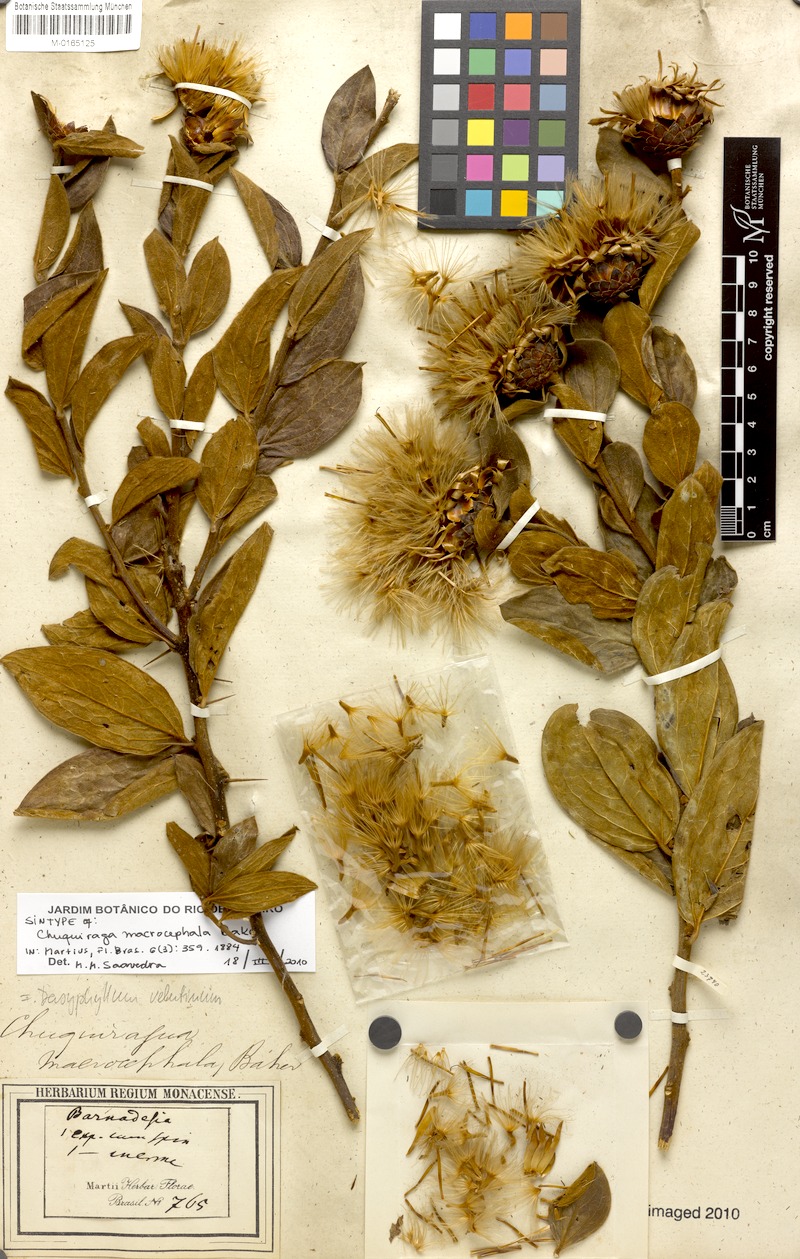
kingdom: Plantae
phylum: Tracheophyta
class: Magnoliopsida
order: Asterales
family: Asteraceae
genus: Dasyphyllum
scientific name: Dasyphyllum velutinum
